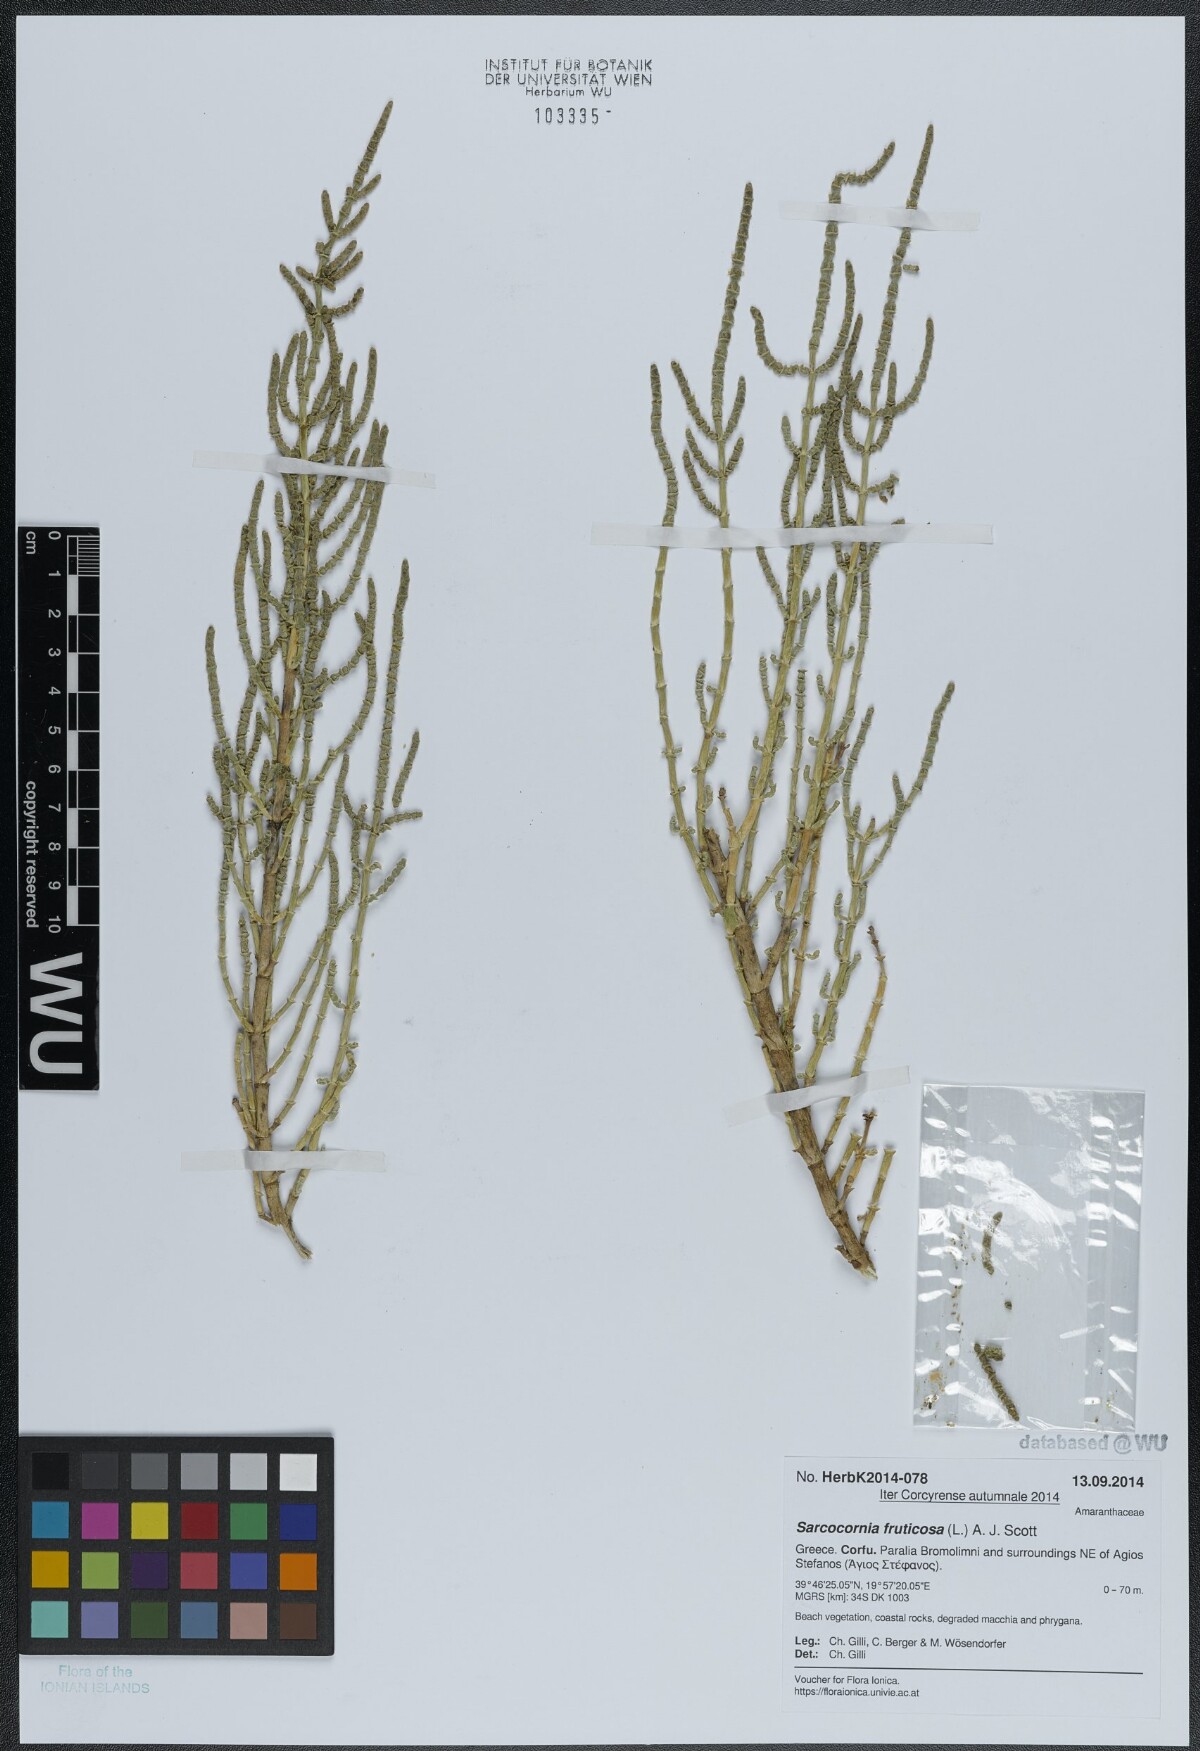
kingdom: Plantae
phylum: Tracheophyta
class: Magnoliopsida
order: Caryophyllales
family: Amaranthaceae
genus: Salicornia
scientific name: Salicornia fruticosa
